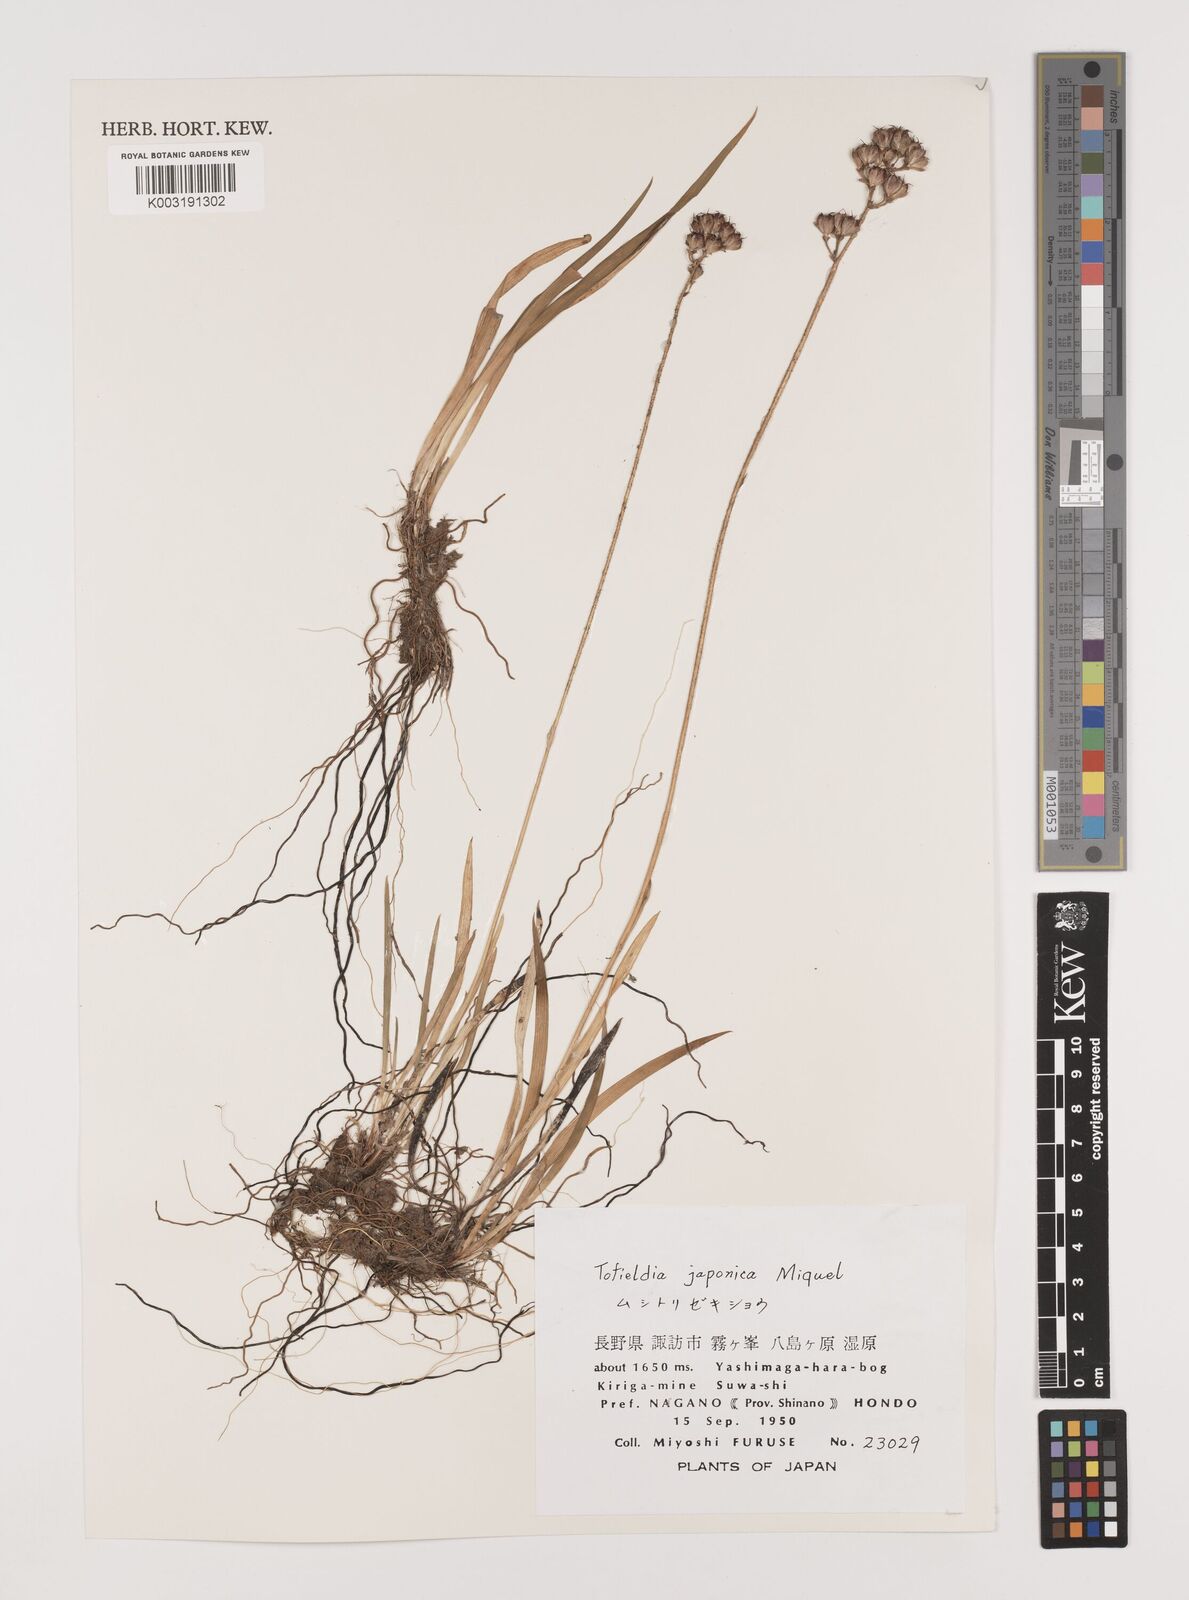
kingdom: Plantae
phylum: Tracheophyta
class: Liliopsida
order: Alismatales
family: Tofieldiaceae
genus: Triantha
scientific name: Triantha japonica
